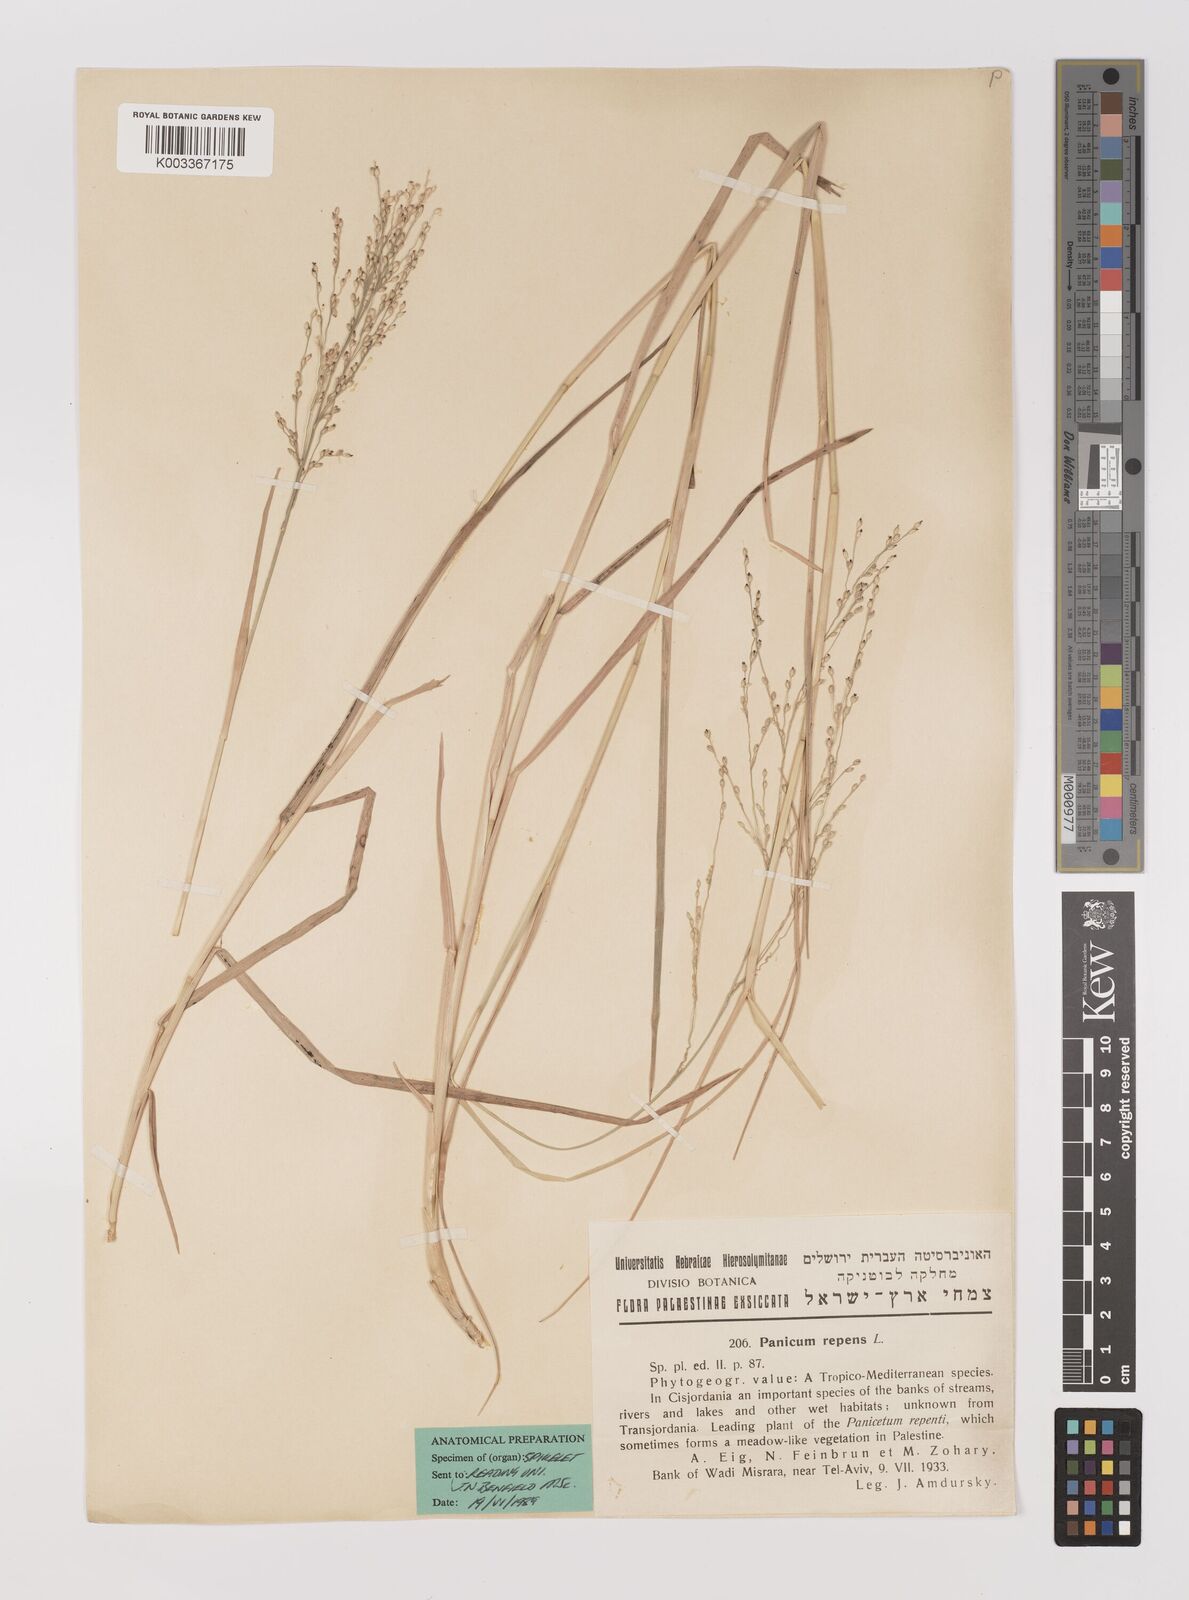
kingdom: Plantae
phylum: Tracheophyta
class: Liliopsida
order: Poales
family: Poaceae
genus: Panicum
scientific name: Panicum repens
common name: Torpedo grass
